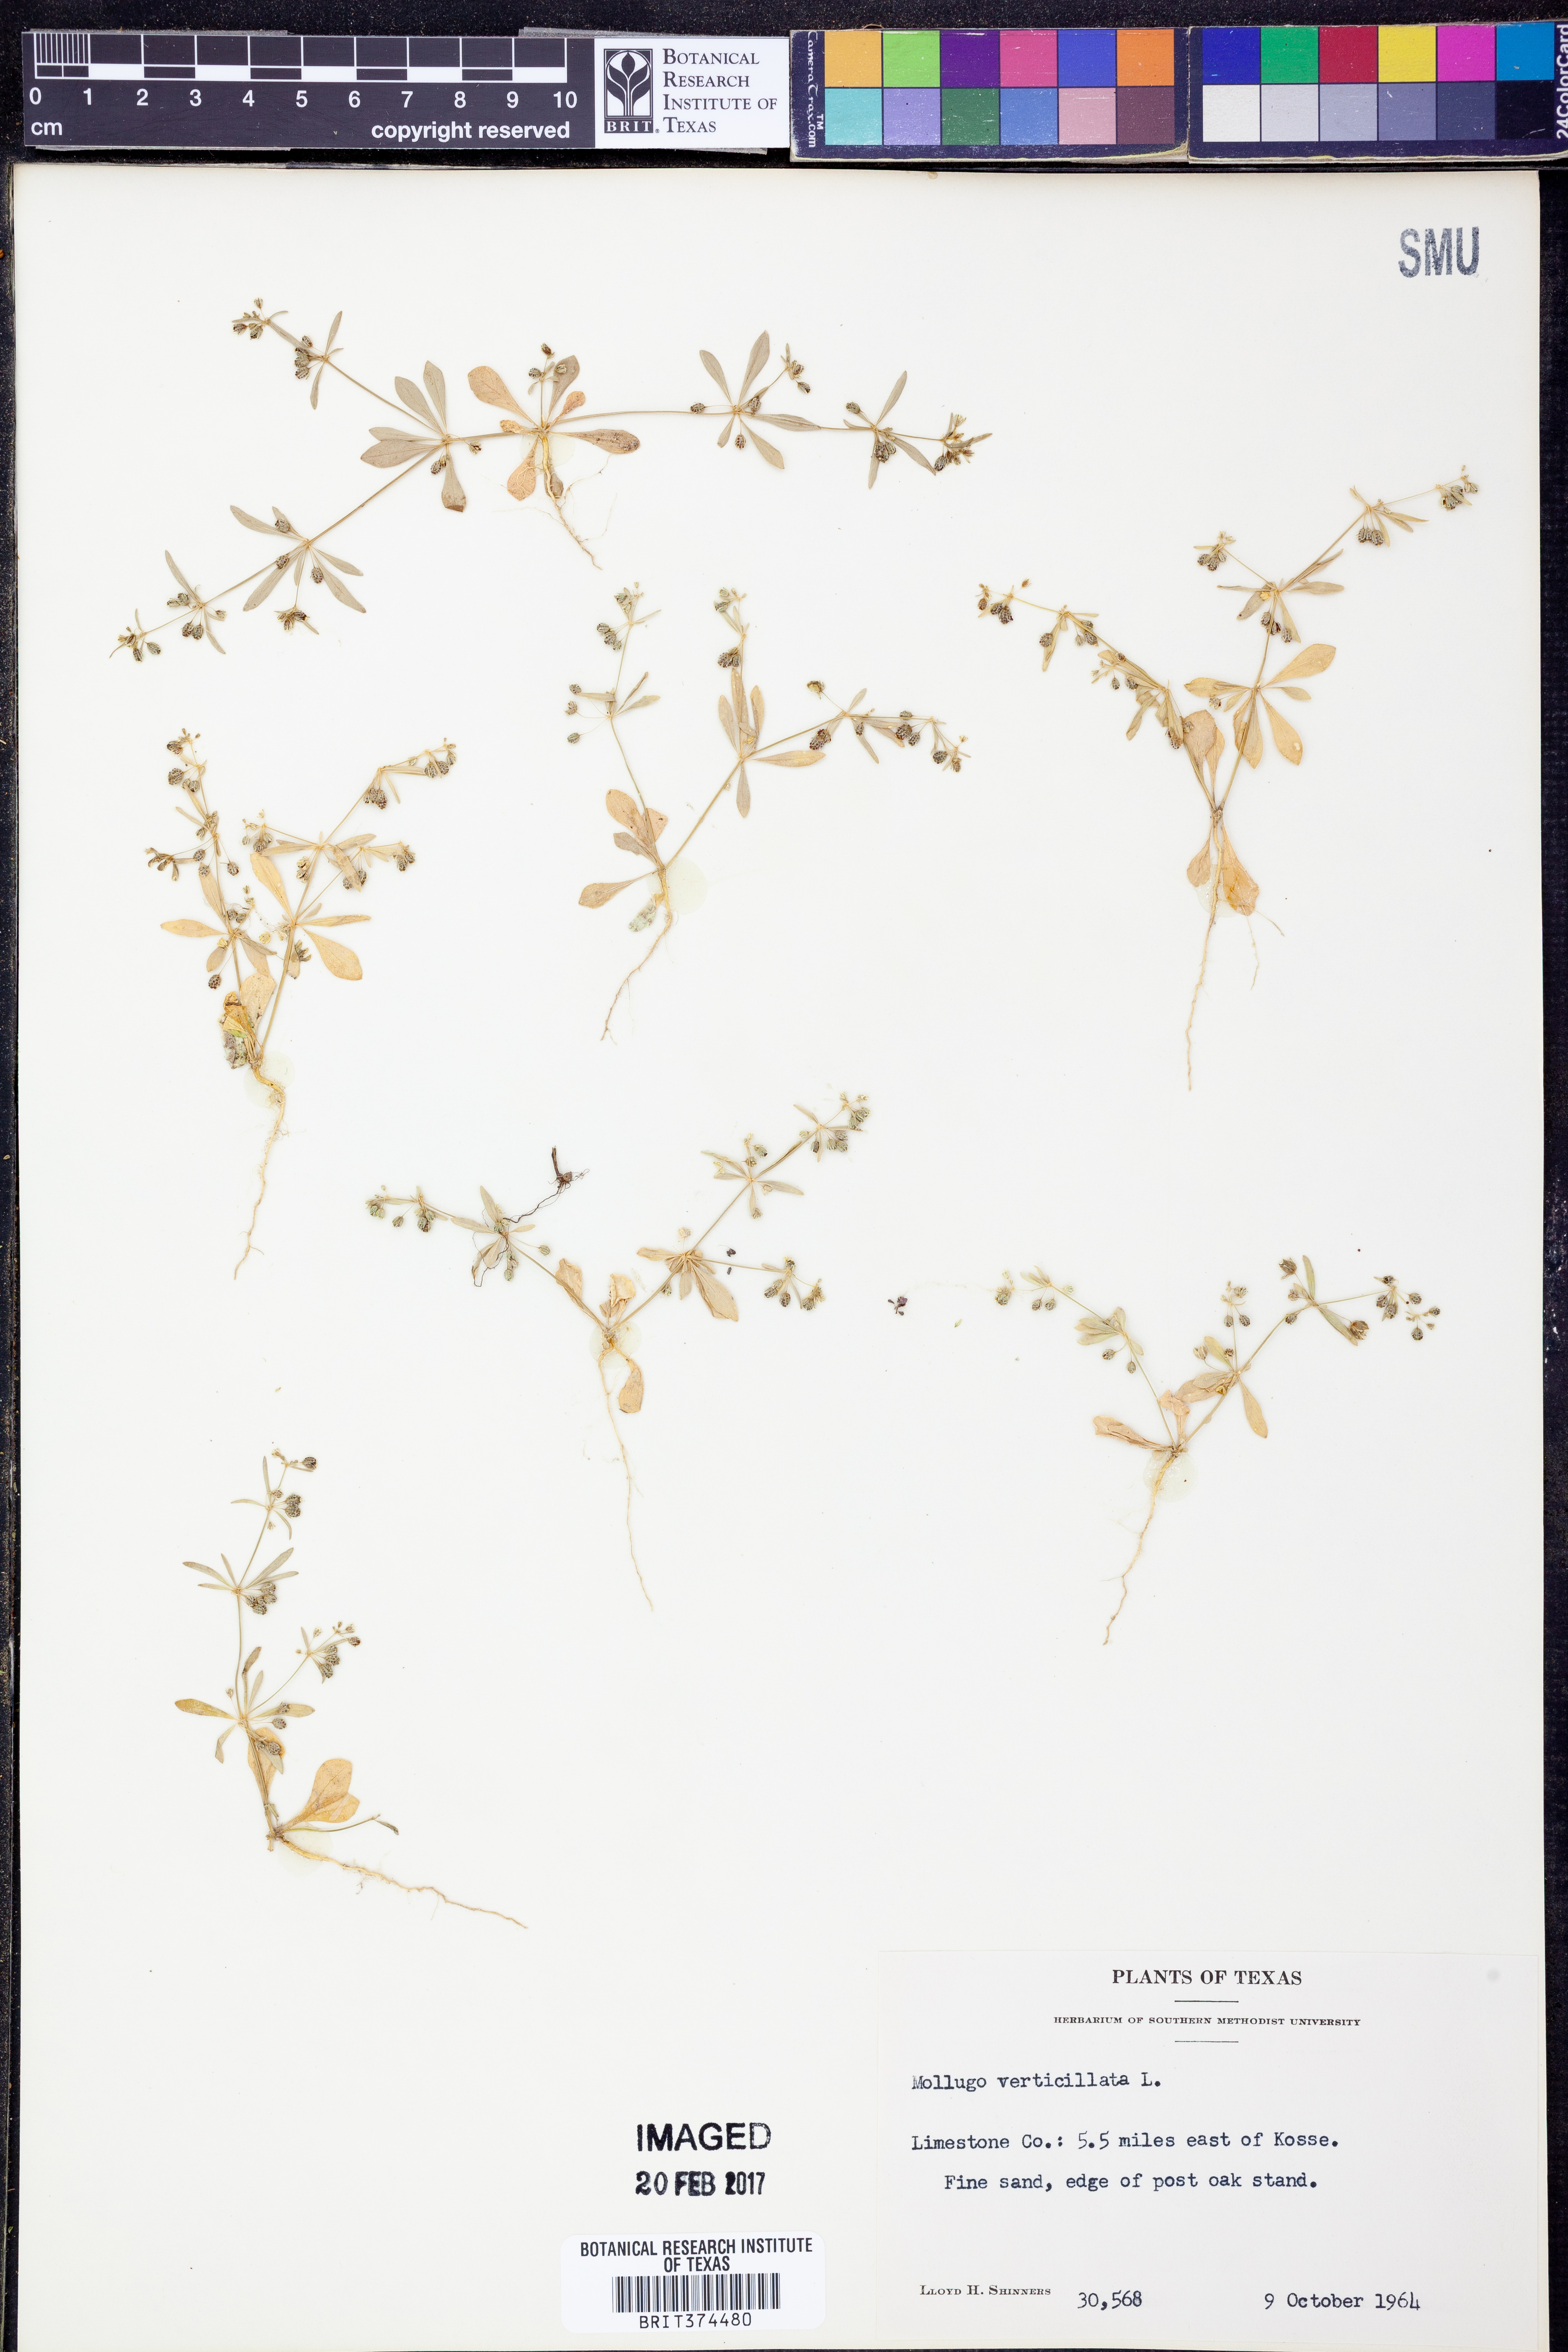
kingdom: Plantae
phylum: Tracheophyta
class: Magnoliopsida
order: Caryophyllales
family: Molluginaceae
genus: Mollugo
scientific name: Mollugo verticillata
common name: Green carpetweed
